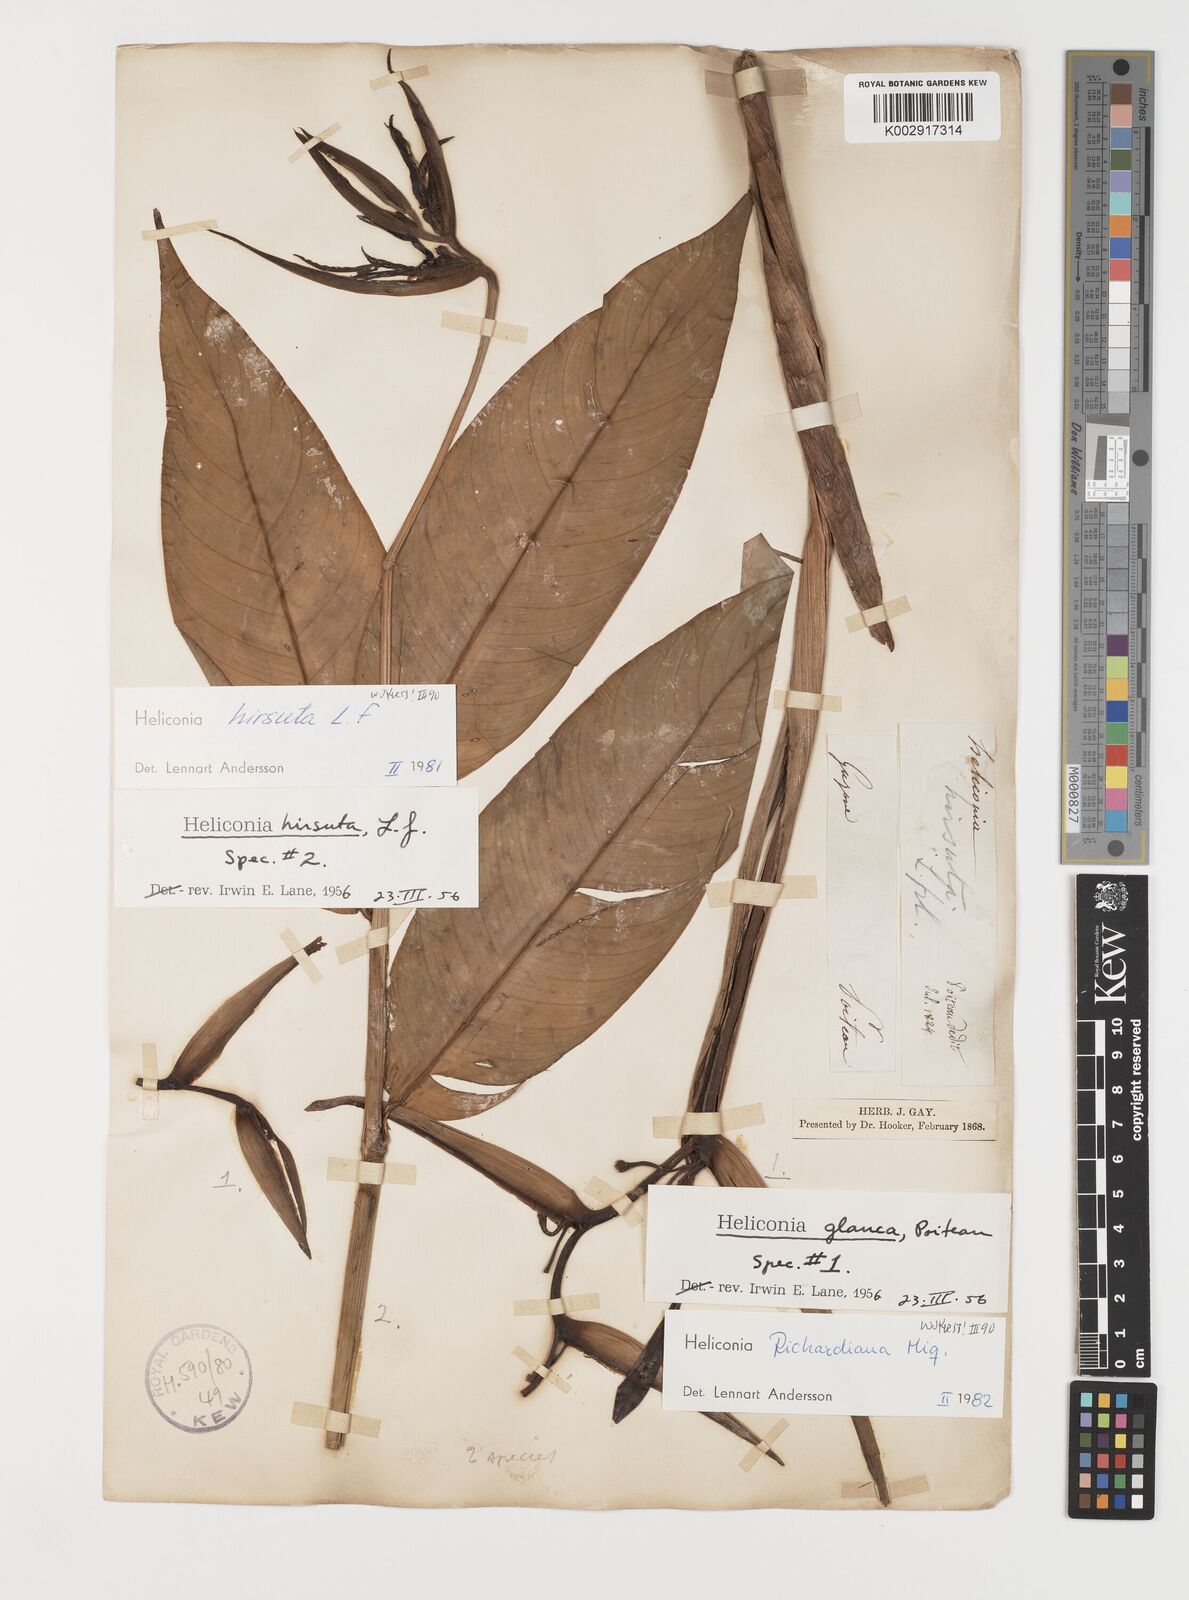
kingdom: Plantae
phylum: Tracheophyta
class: Liliopsida
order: Zingiberales
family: Heliconiaceae
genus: Heliconia
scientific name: Heliconia richardiana
